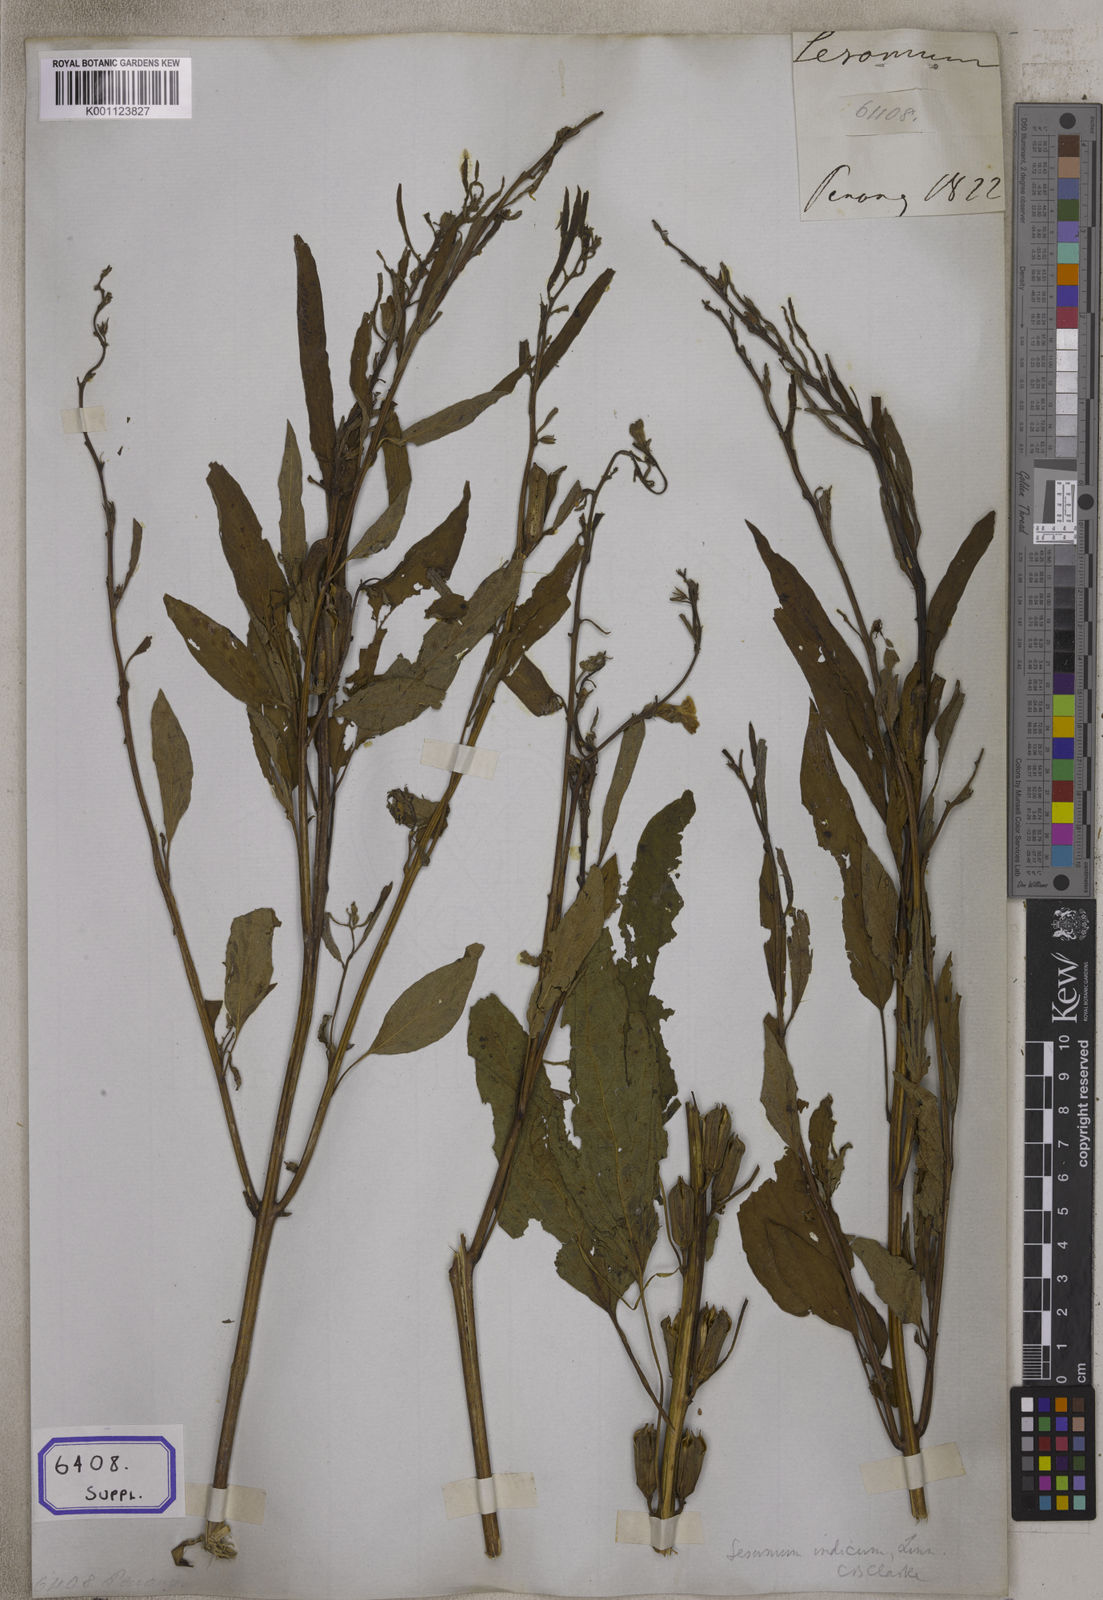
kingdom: Plantae
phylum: Tracheophyta
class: Magnoliopsida
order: Lamiales
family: Pedaliaceae
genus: Sesamum
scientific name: Sesamum indicum
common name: Sesame
